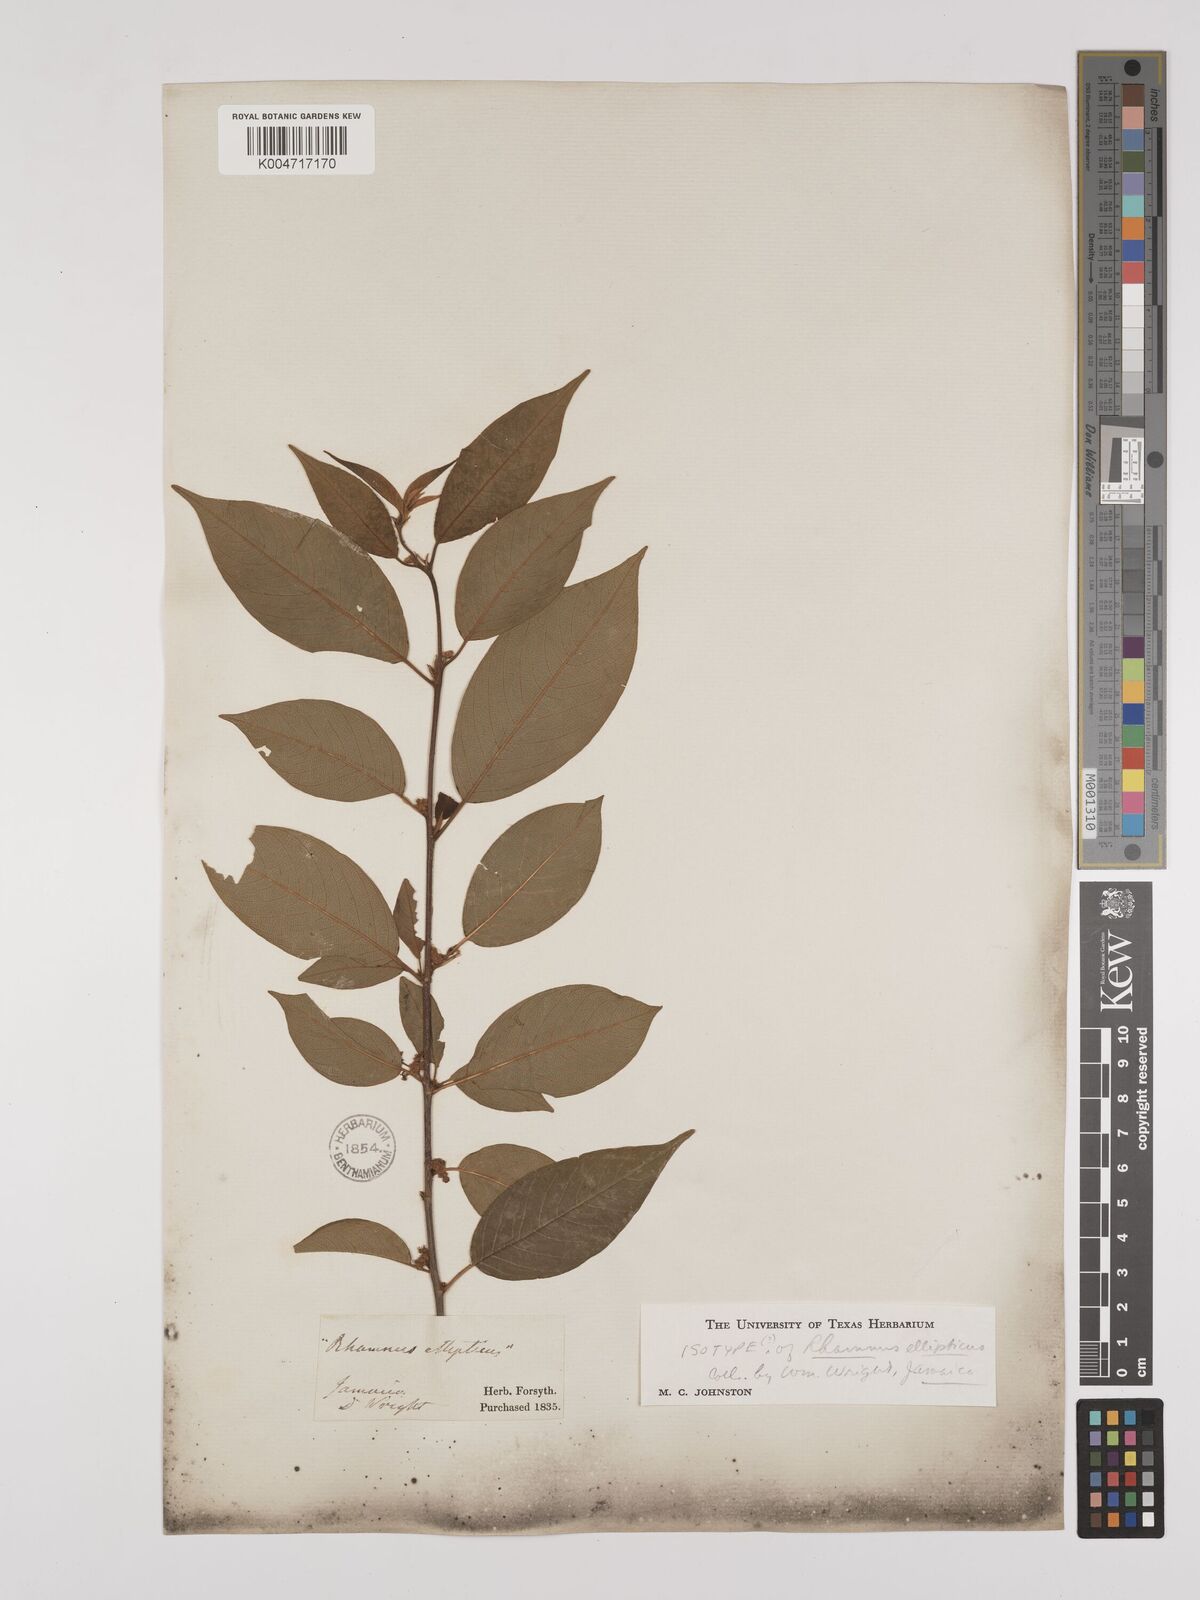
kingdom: Plantae
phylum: Tracheophyta
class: Magnoliopsida
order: Rosales
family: Rhamnaceae
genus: Colubrina
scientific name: Colubrina elliptica
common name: Soldierwood
